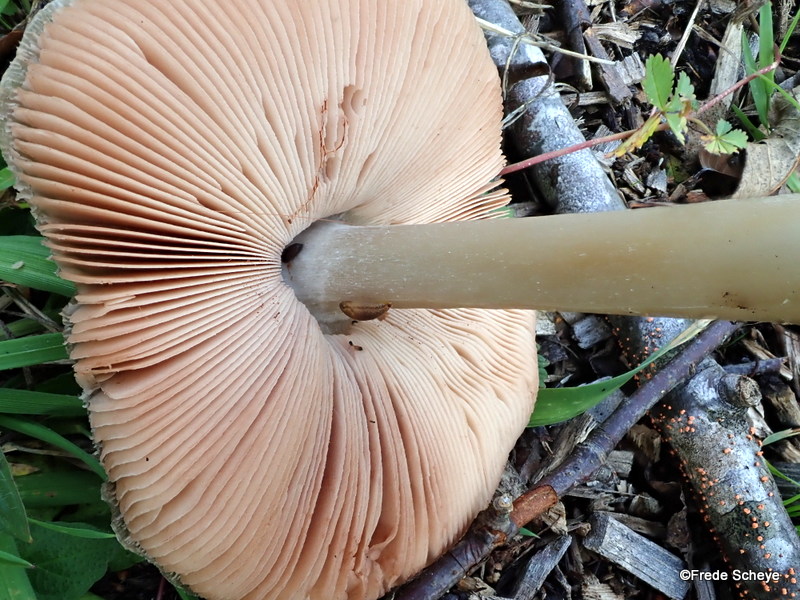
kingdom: Fungi
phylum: Basidiomycota
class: Agaricomycetes
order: Agaricales
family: Pluteaceae
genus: Volvopluteus
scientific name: Volvopluteus gloiocephalus
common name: høj posesvamp
